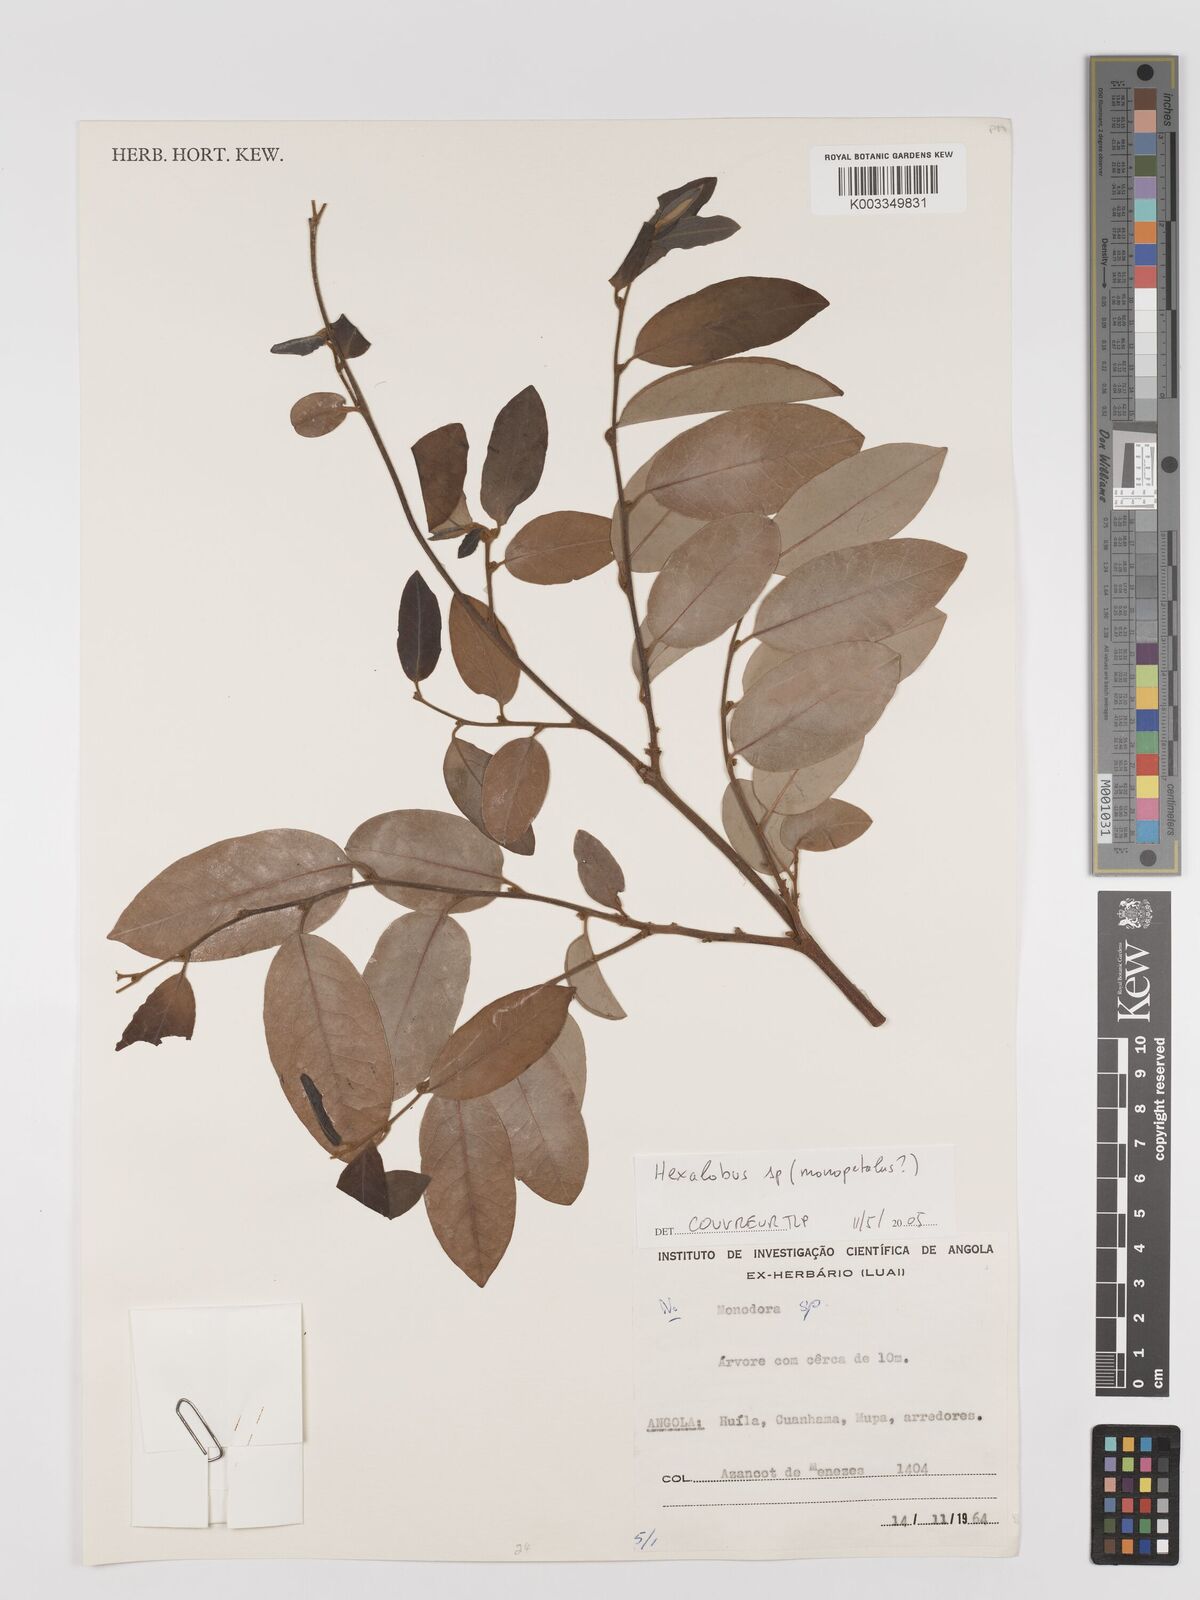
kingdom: Plantae
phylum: Tracheophyta
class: Magnoliopsida
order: Magnoliales
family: Annonaceae
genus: Hexalobus
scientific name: Hexalobus
